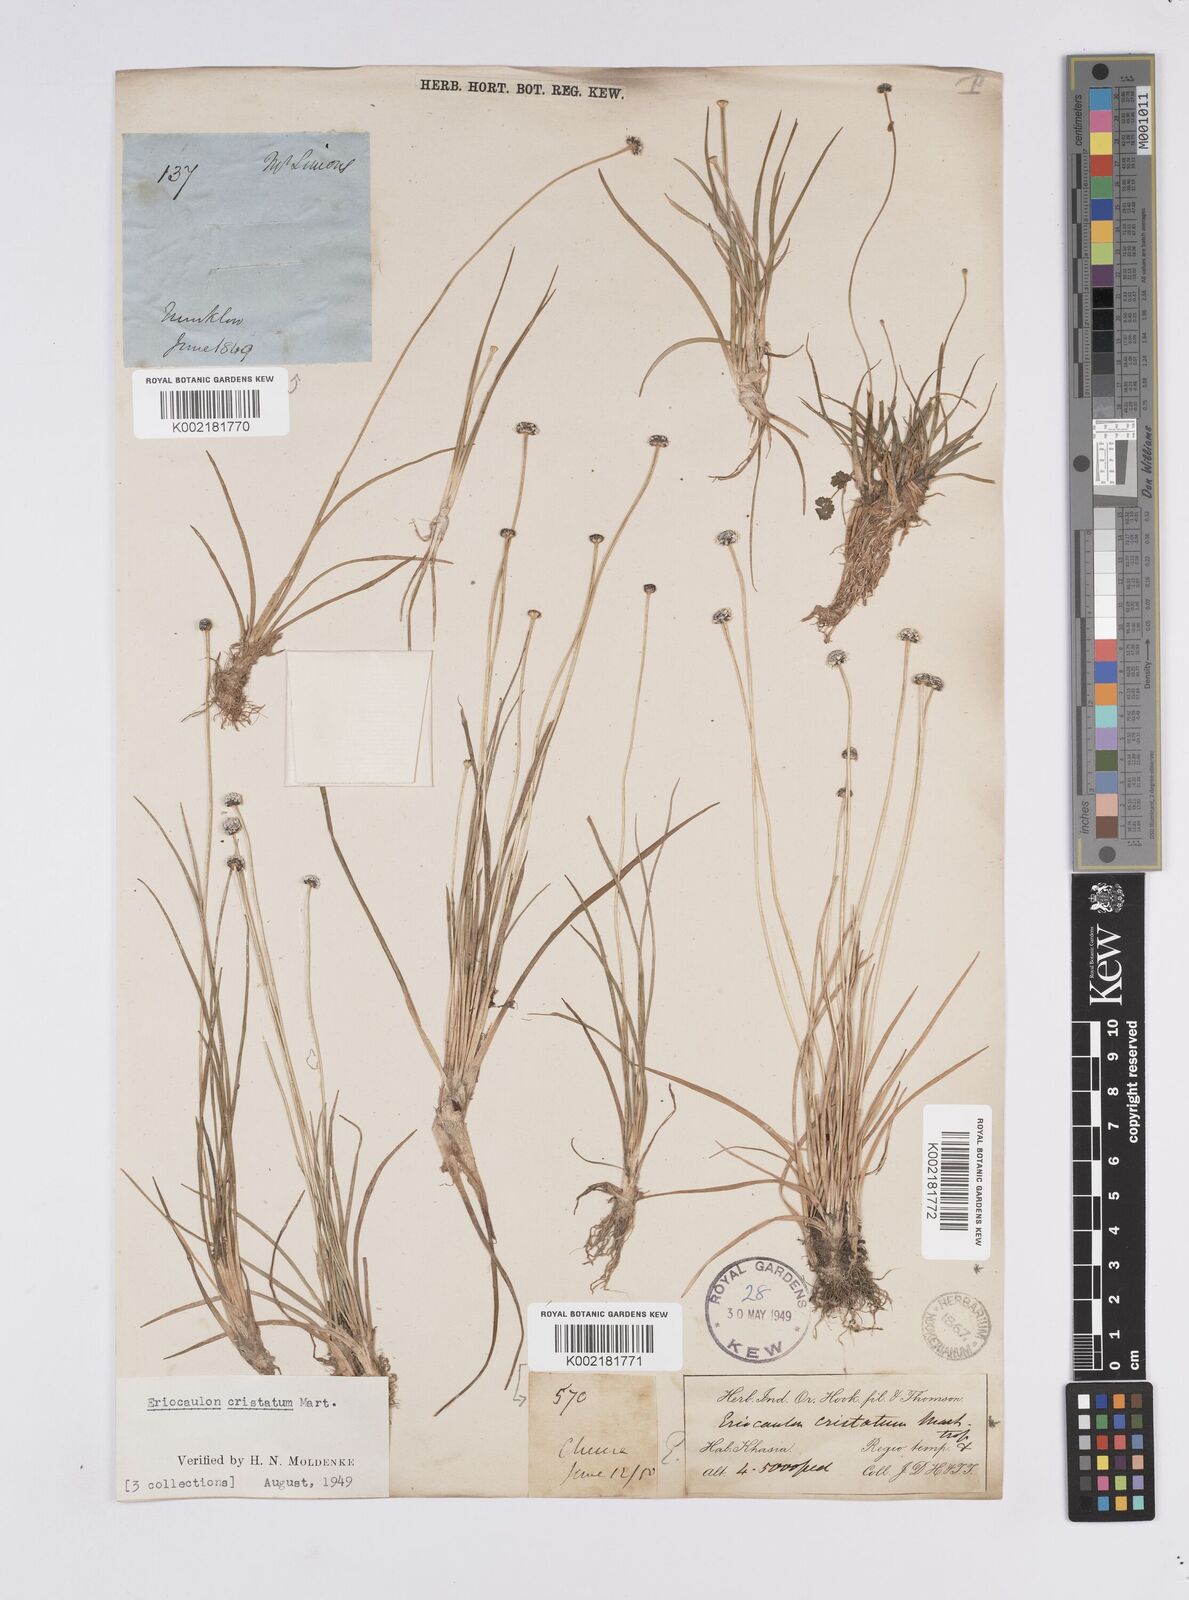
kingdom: Plantae
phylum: Tracheophyta
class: Liliopsida
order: Poales
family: Eriocaulaceae
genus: Eriocaulon
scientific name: Eriocaulon cristatum
